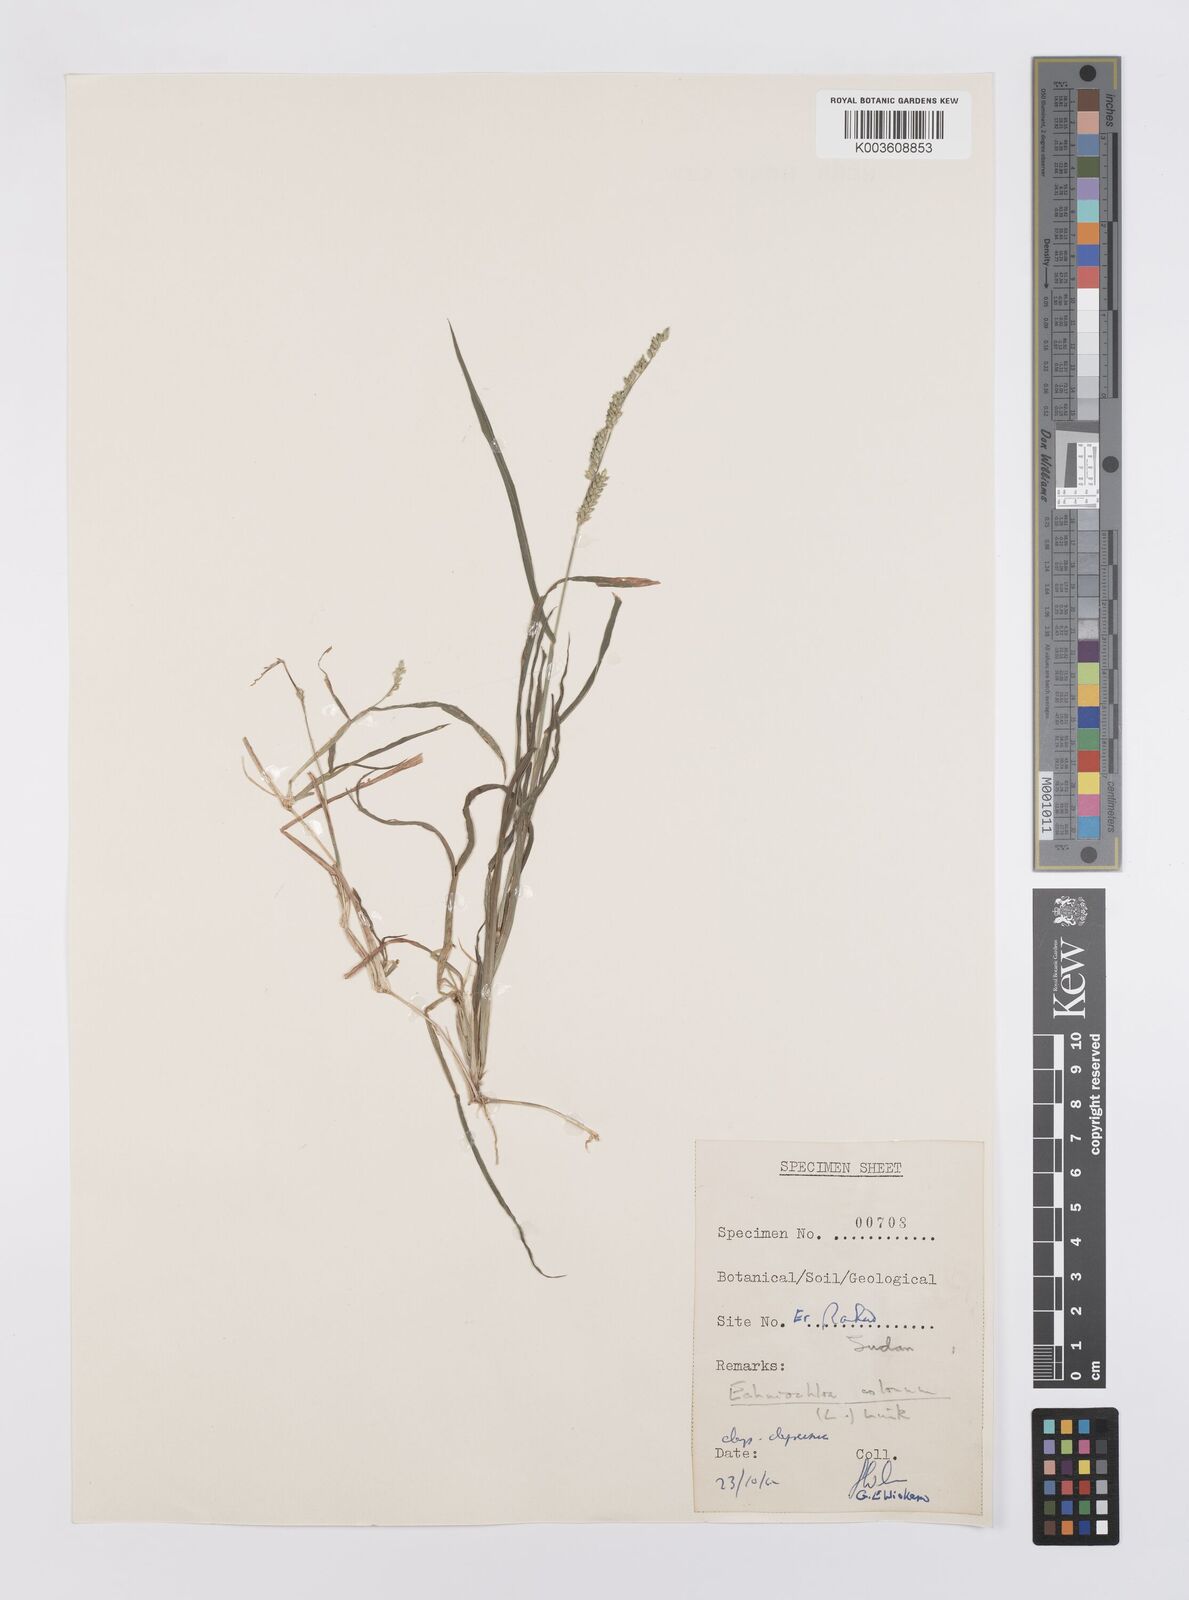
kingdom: Plantae
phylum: Tracheophyta
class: Liliopsida
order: Poales
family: Poaceae
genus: Echinochloa
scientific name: Echinochloa colonum
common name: Jungle rice
